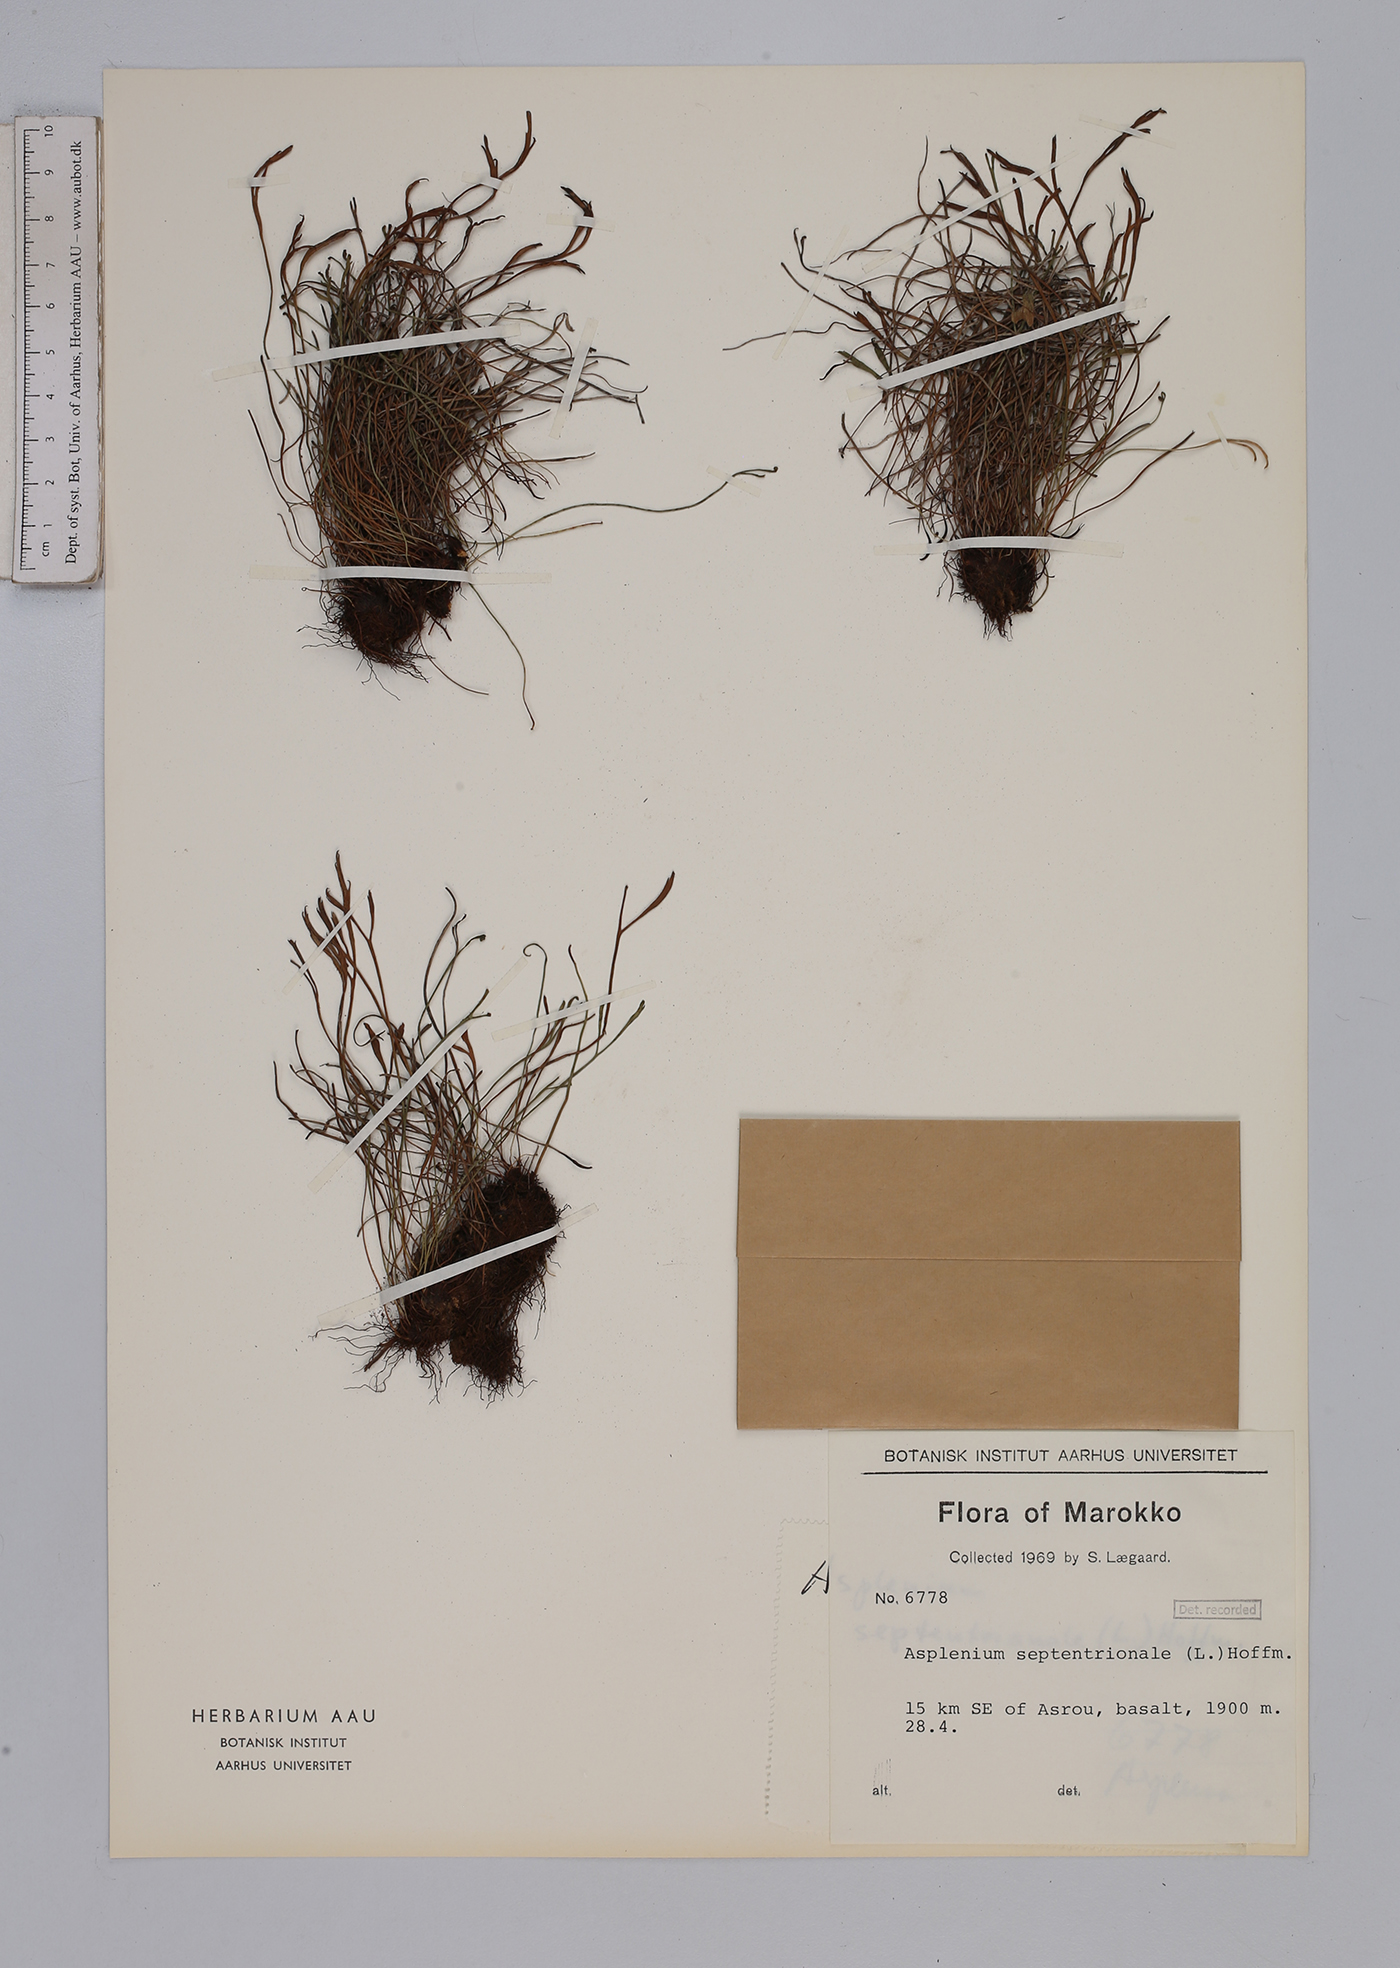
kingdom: Plantae
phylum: Tracheophyta
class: Polypodiopsida
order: Polypodiales
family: Aspleniaceae
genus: Asplenium
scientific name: Asplenium septentrionale
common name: Forked spleenwort
